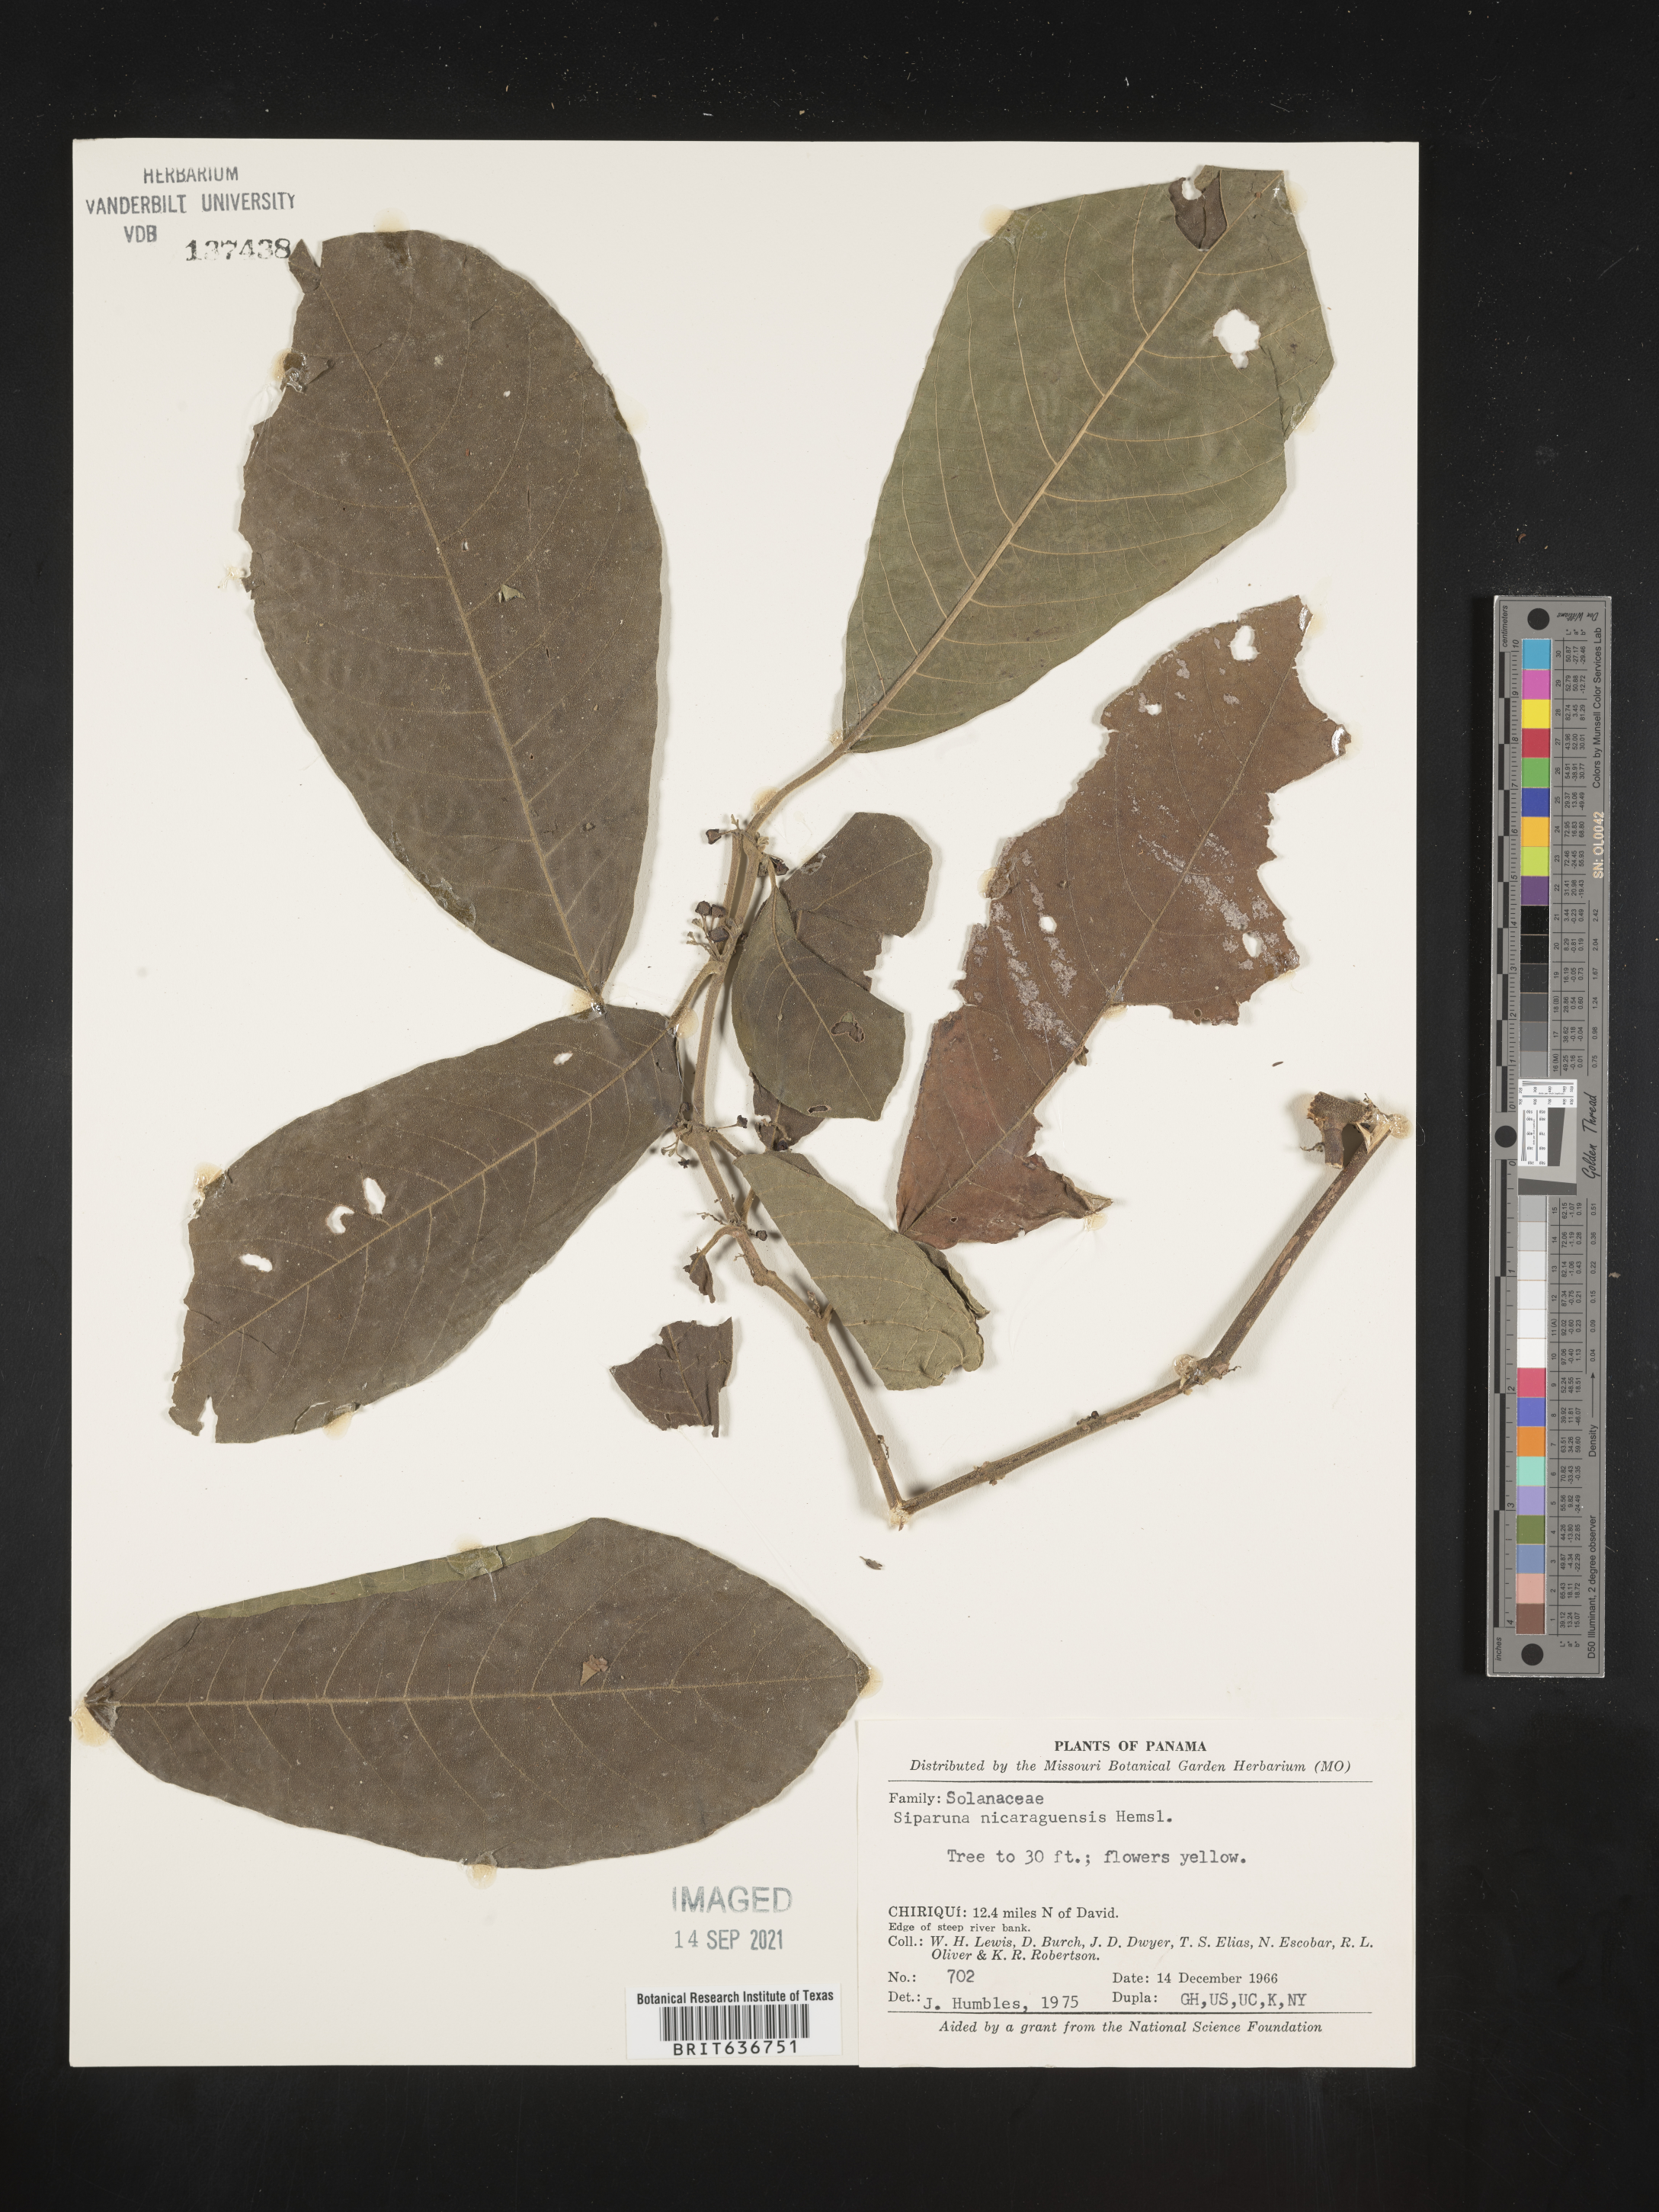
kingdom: Plantae
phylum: Tracheophyta
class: Magnoliopsida
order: Laurales
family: Siparunaceae
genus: Siparuna
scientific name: Siparuna
